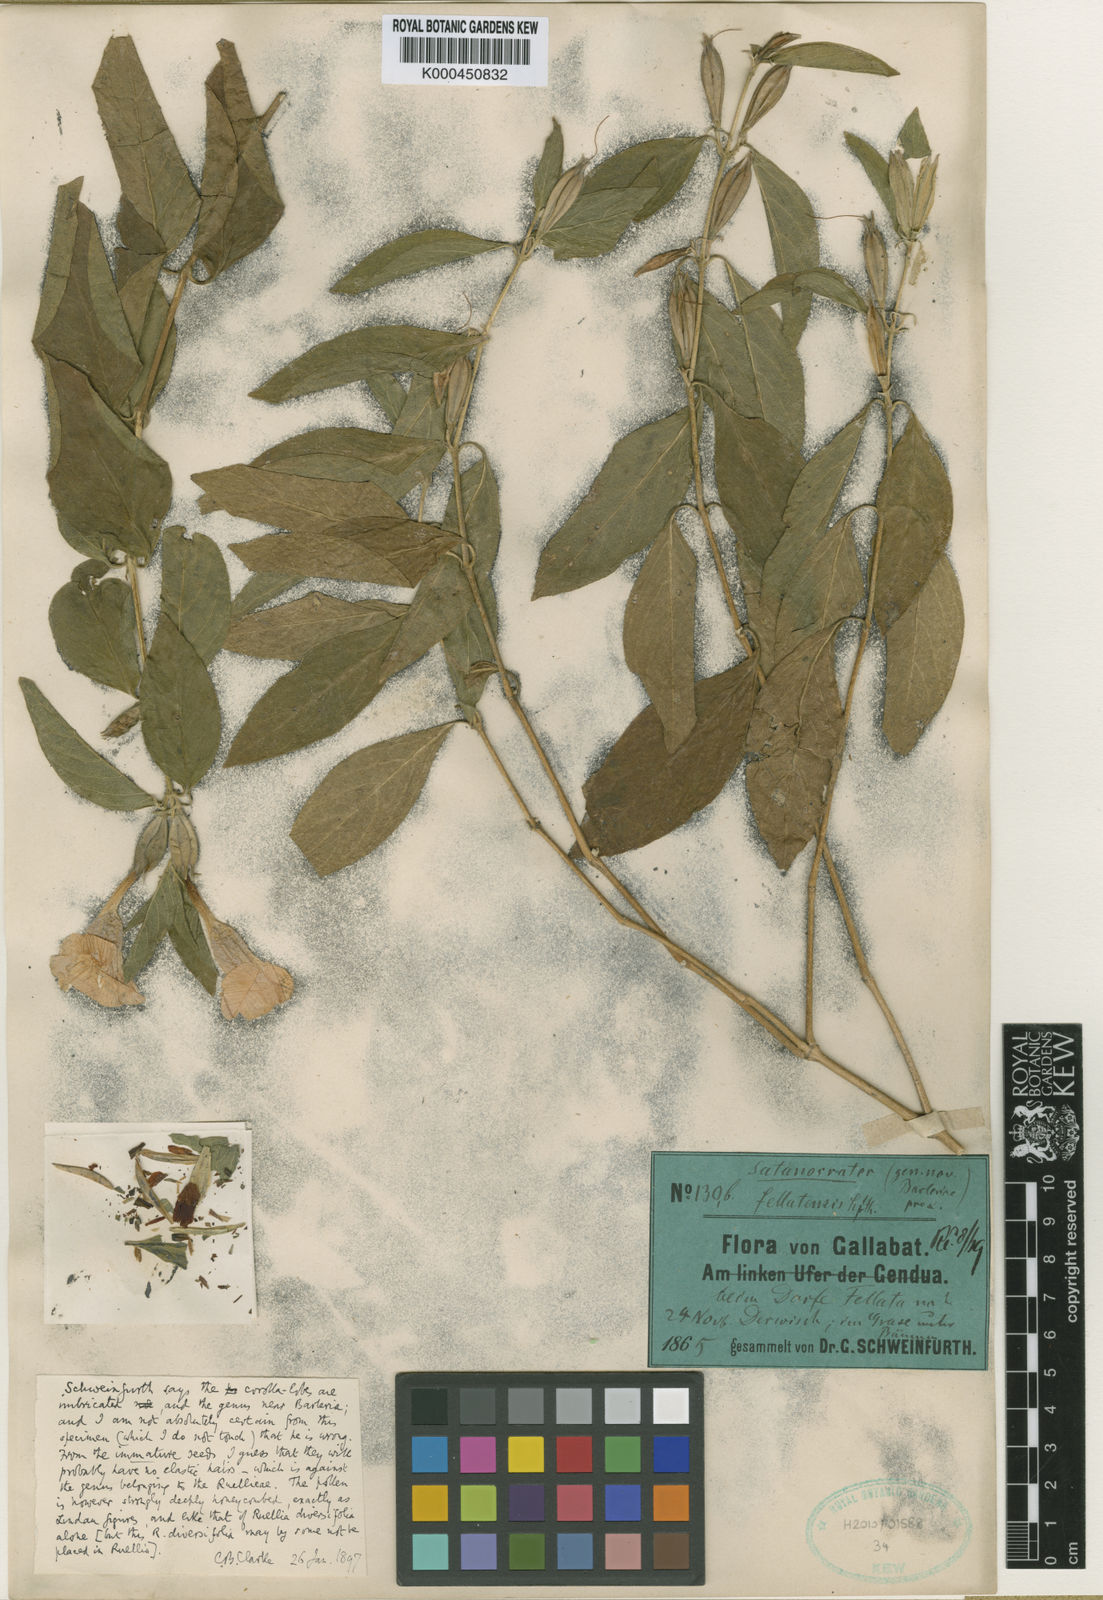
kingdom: Plantae
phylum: Tracheophyta
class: Magnoliopsida
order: Lamiales
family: Acanthaceae
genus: Satanocrater
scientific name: Satanocrater fellatensis
